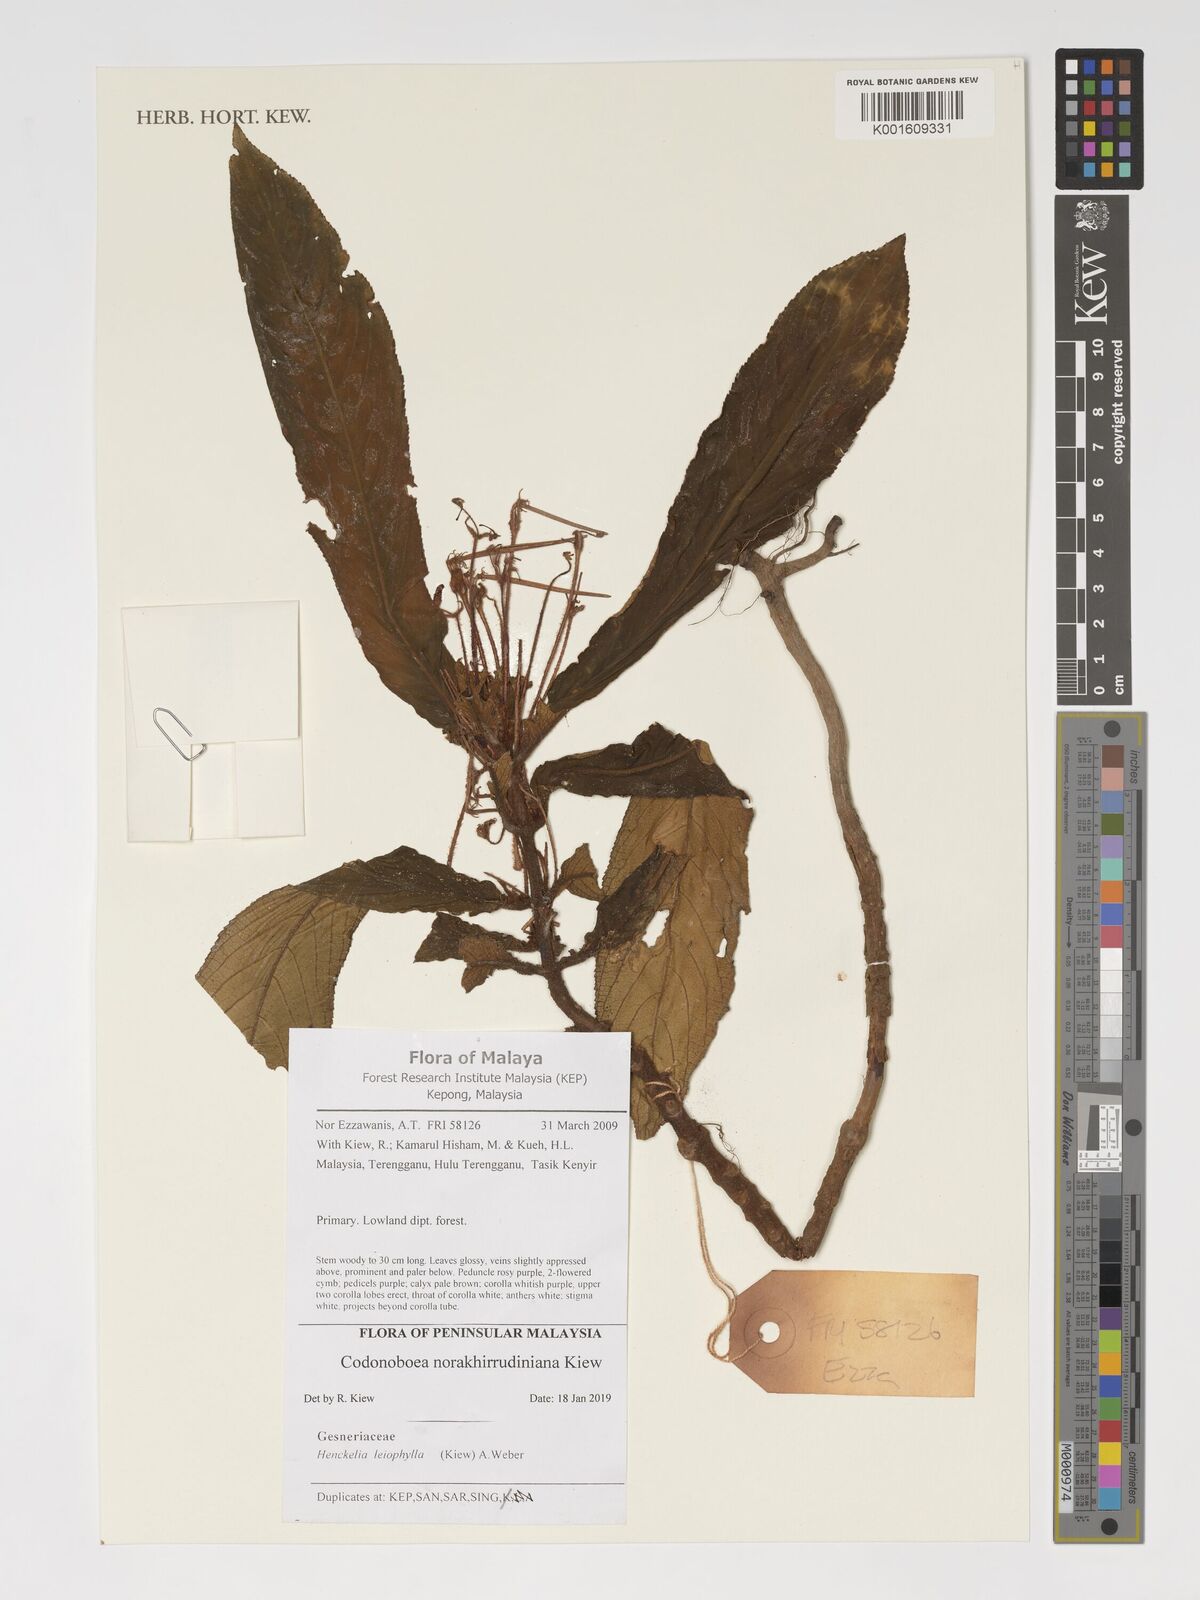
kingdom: Plantae
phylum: Tracheophyta
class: Magnoliopsida
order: Lamiales
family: Gesneriaceae
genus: Codonoboea
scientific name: Codonoboea norakhirrudiniana
